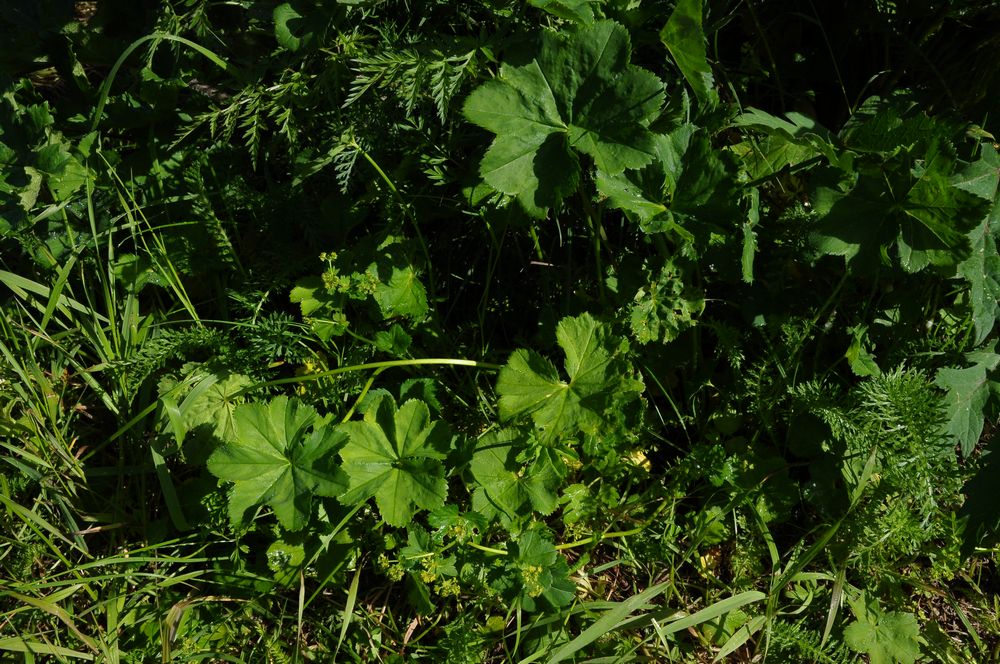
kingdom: Plantae
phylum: Tracheophyta
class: Magnoliopsida
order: Rosales
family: Rosaceae
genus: Alchemilla
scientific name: Alchemilla glabricaulis
